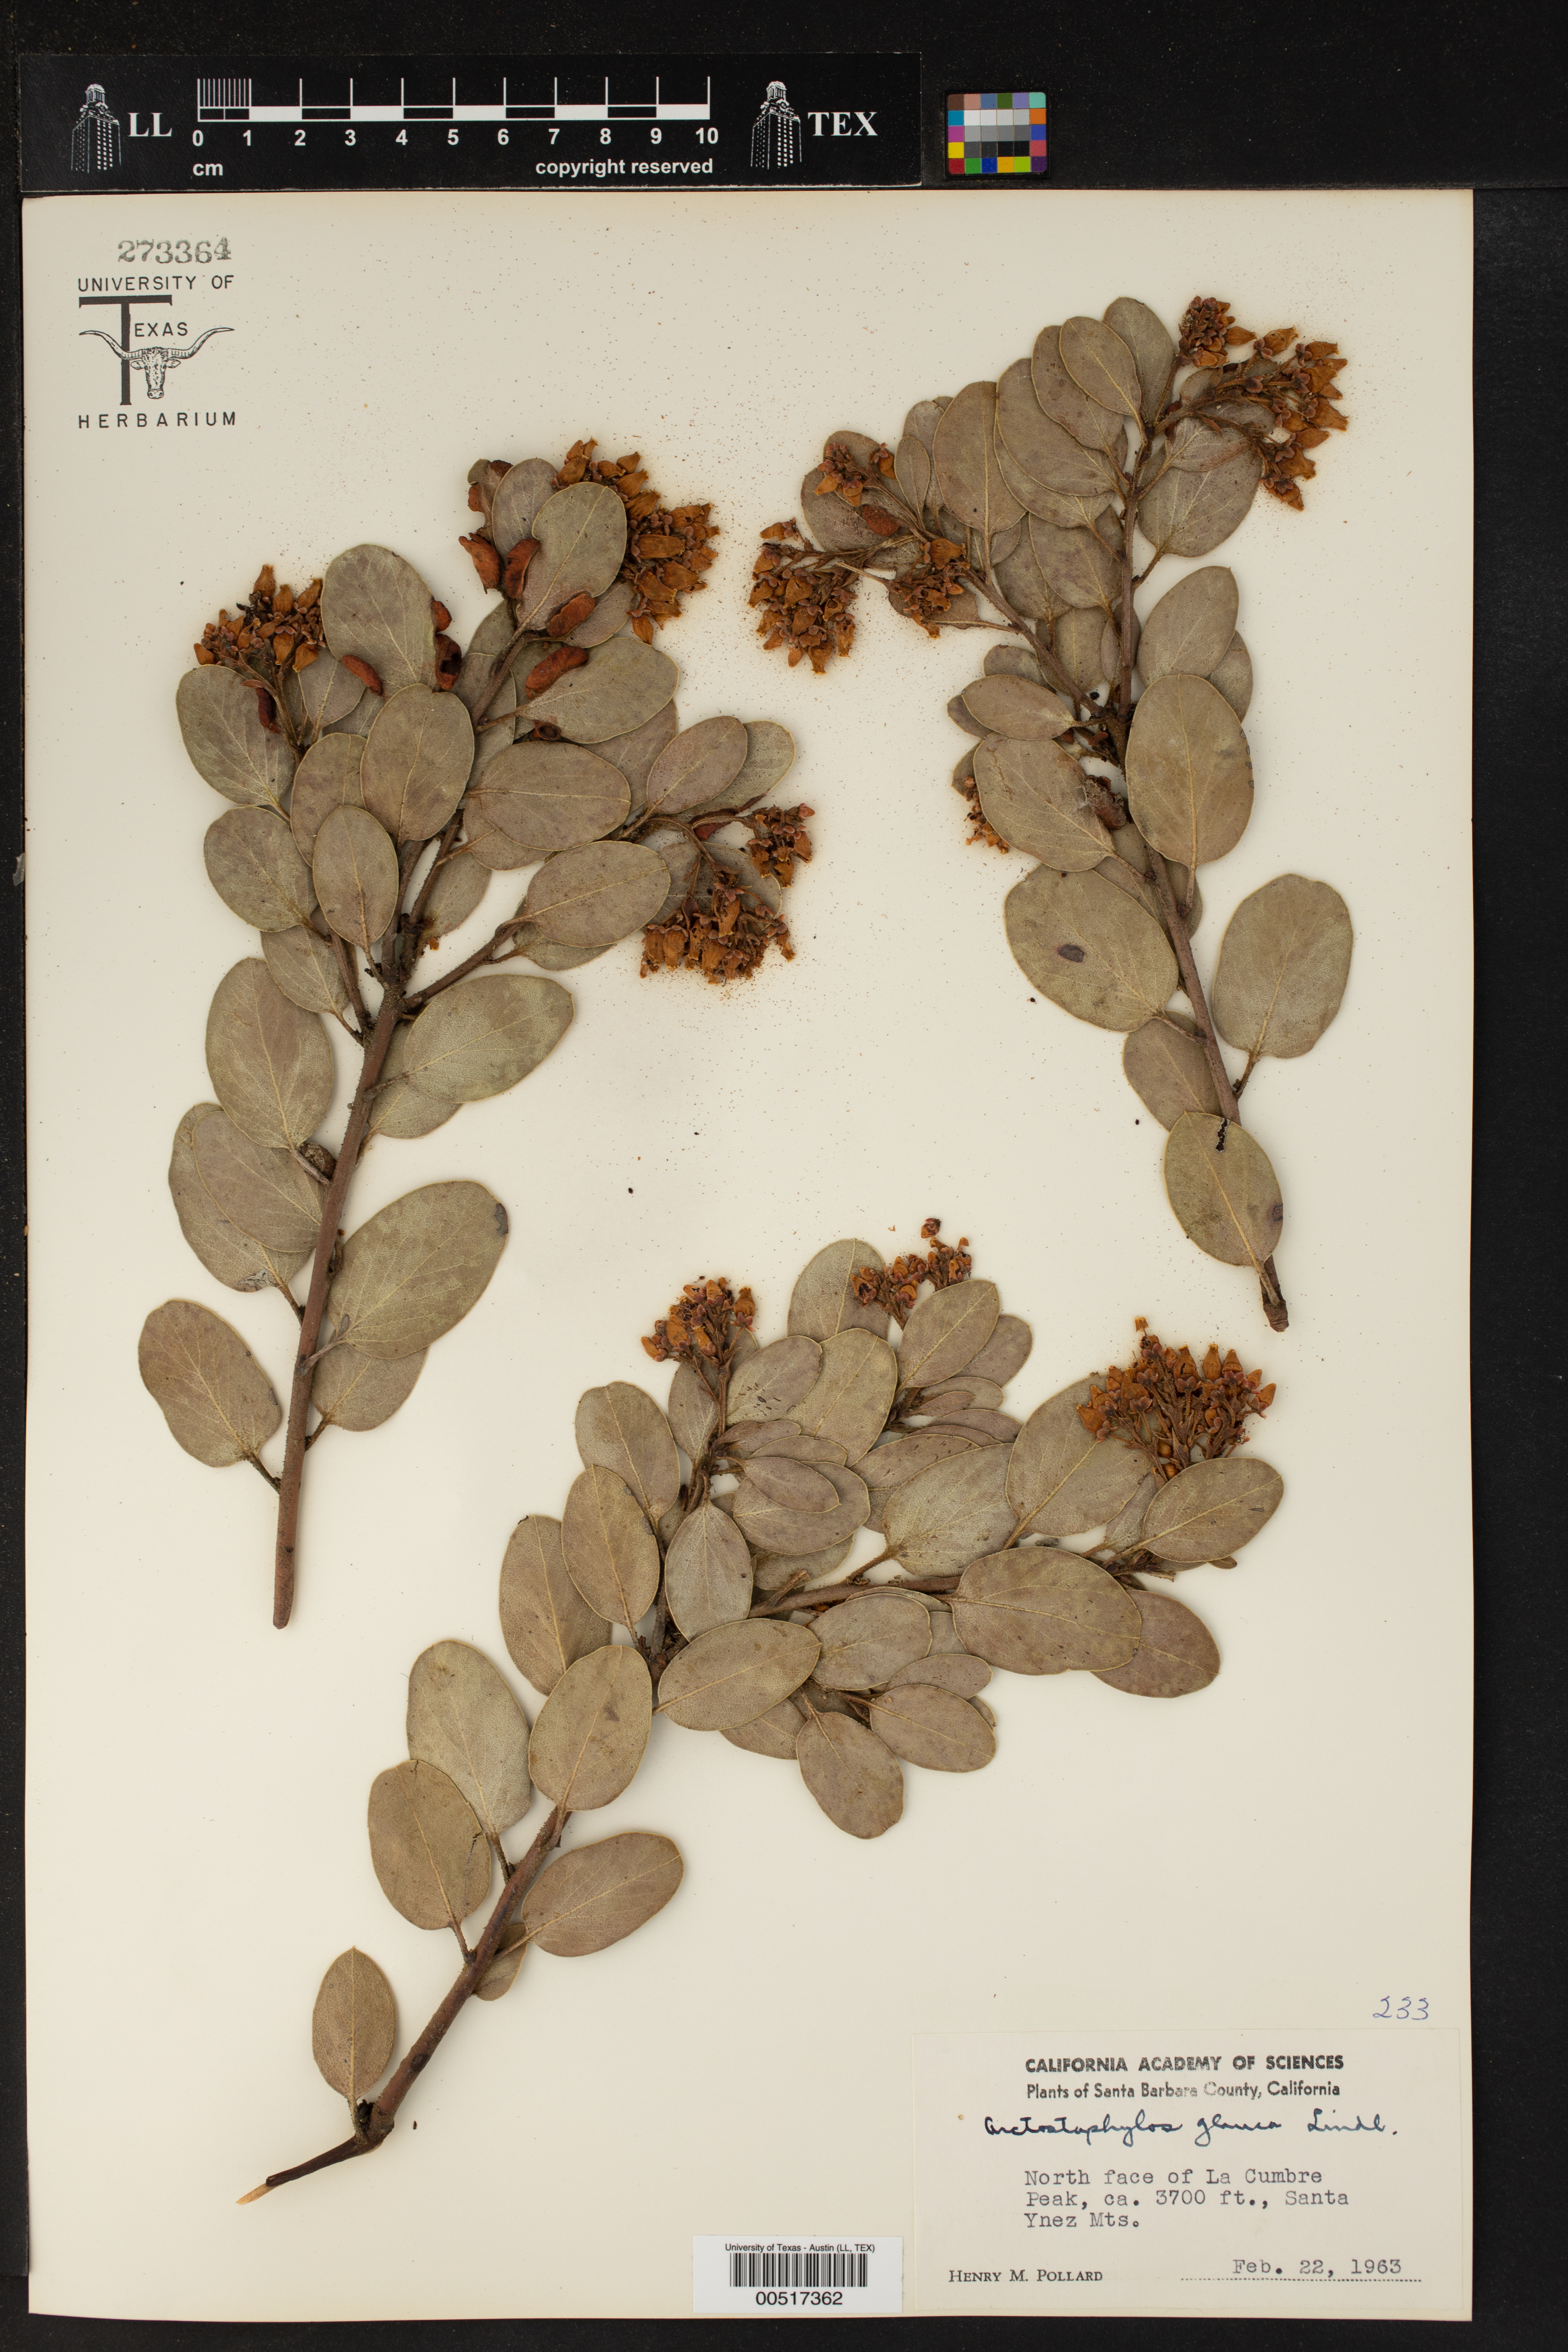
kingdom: Plantae
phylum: Tracheophyta
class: Magnoliopsida
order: Ericales
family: Ericaceae
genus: Arctostaphylos
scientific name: Arctostaphylos glauca
